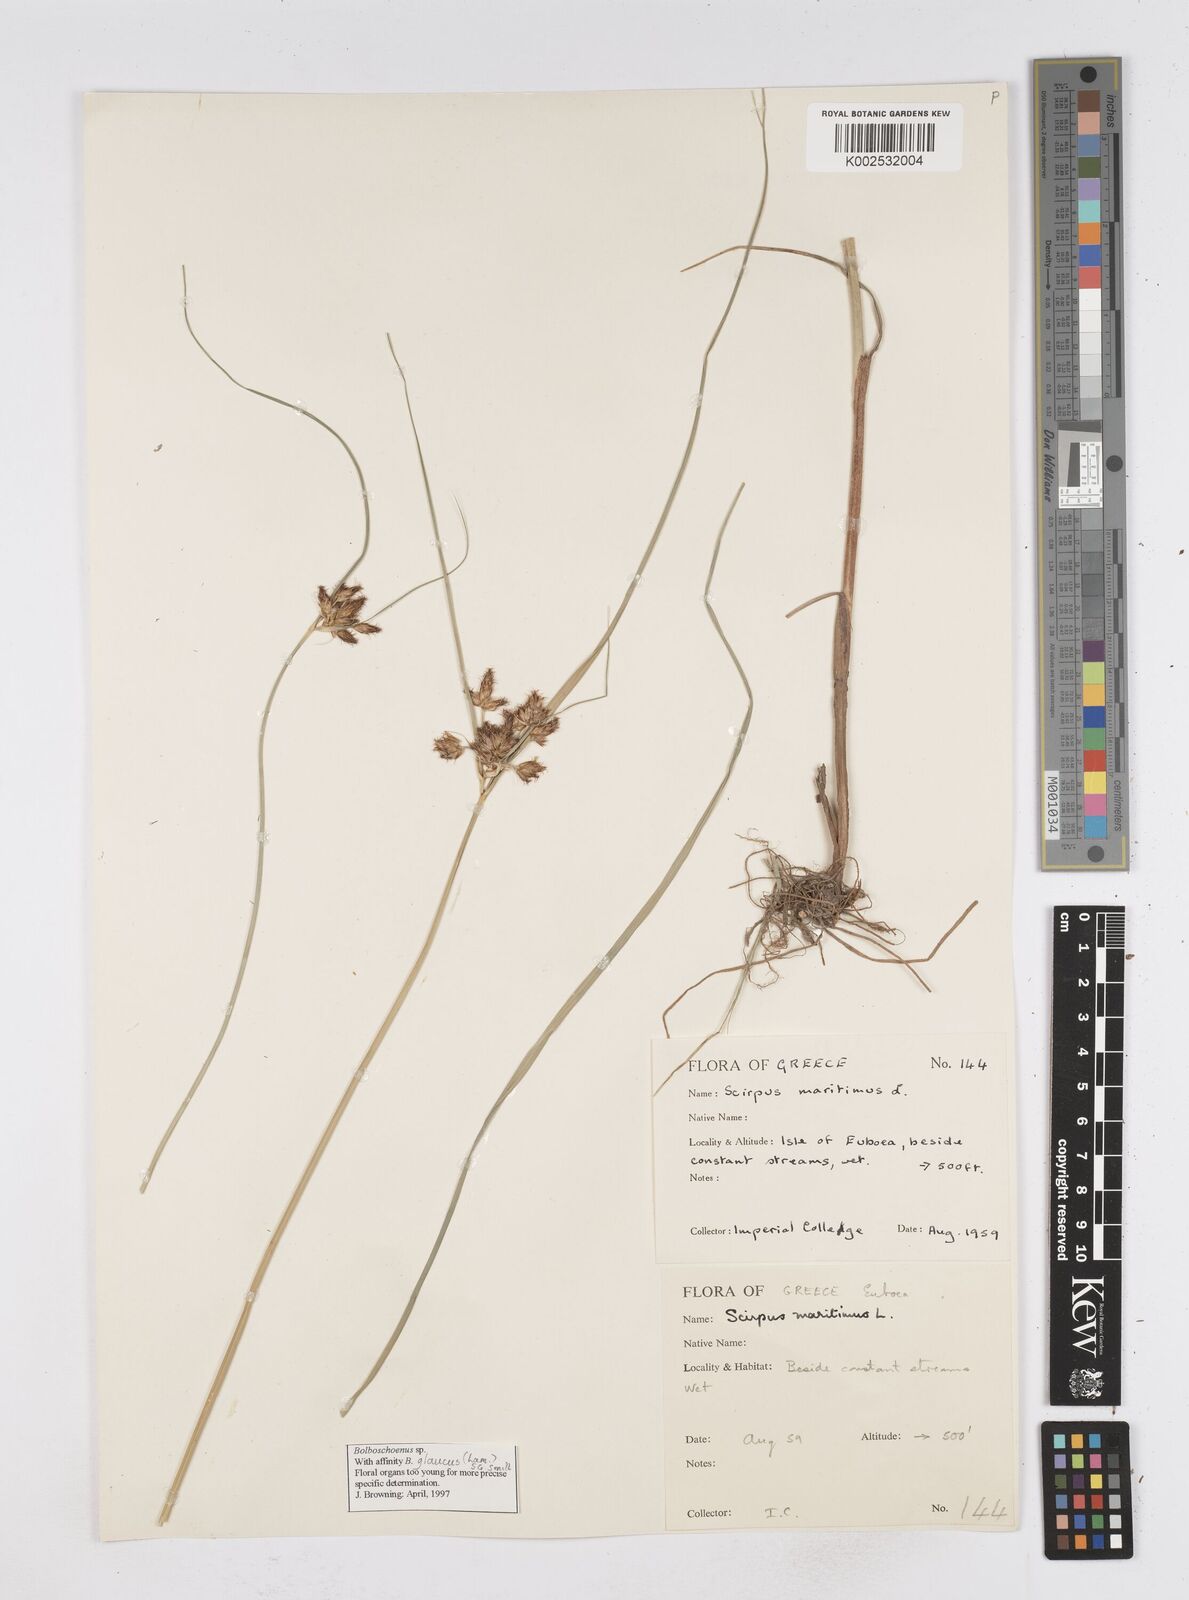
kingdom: Plantae
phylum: Tracheophyta
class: Liliopsida
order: Poales
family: Cyperaceae
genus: Bolboschoenus
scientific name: Bolboschoenus maritimus
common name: Sea club-rush
